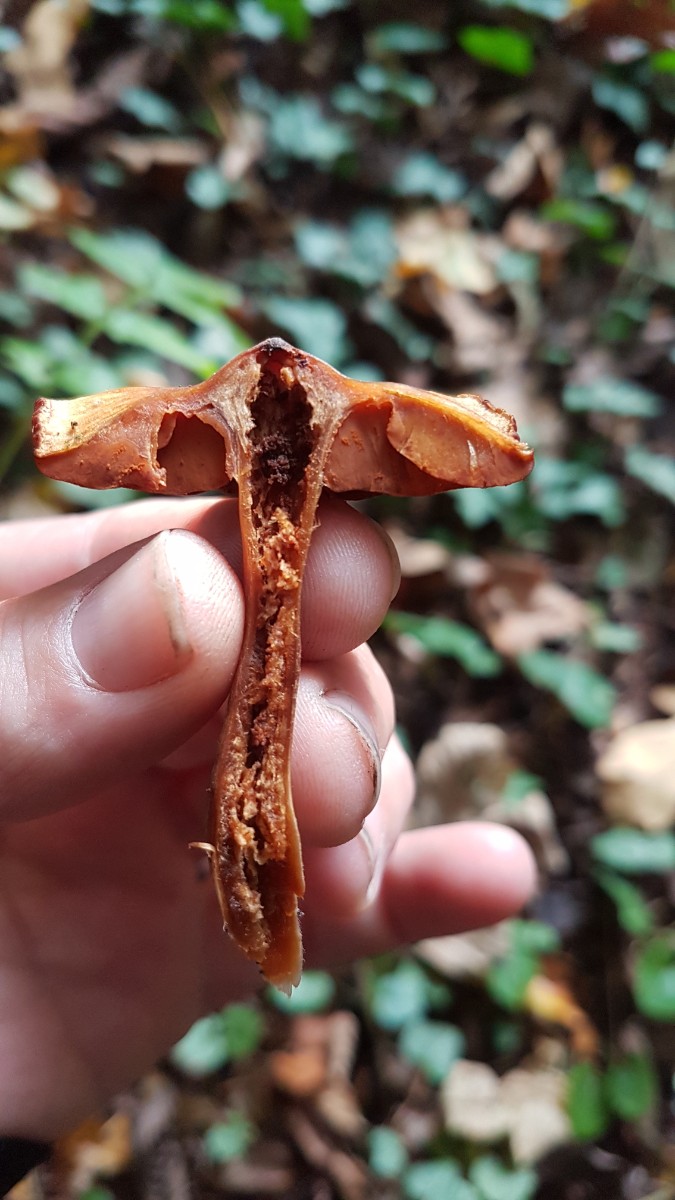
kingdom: Fungi
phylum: Basidiomycota
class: Agaricomycetes
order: Agaricales
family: Cortinariaceae
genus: Cortinarius
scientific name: Cortinarius
